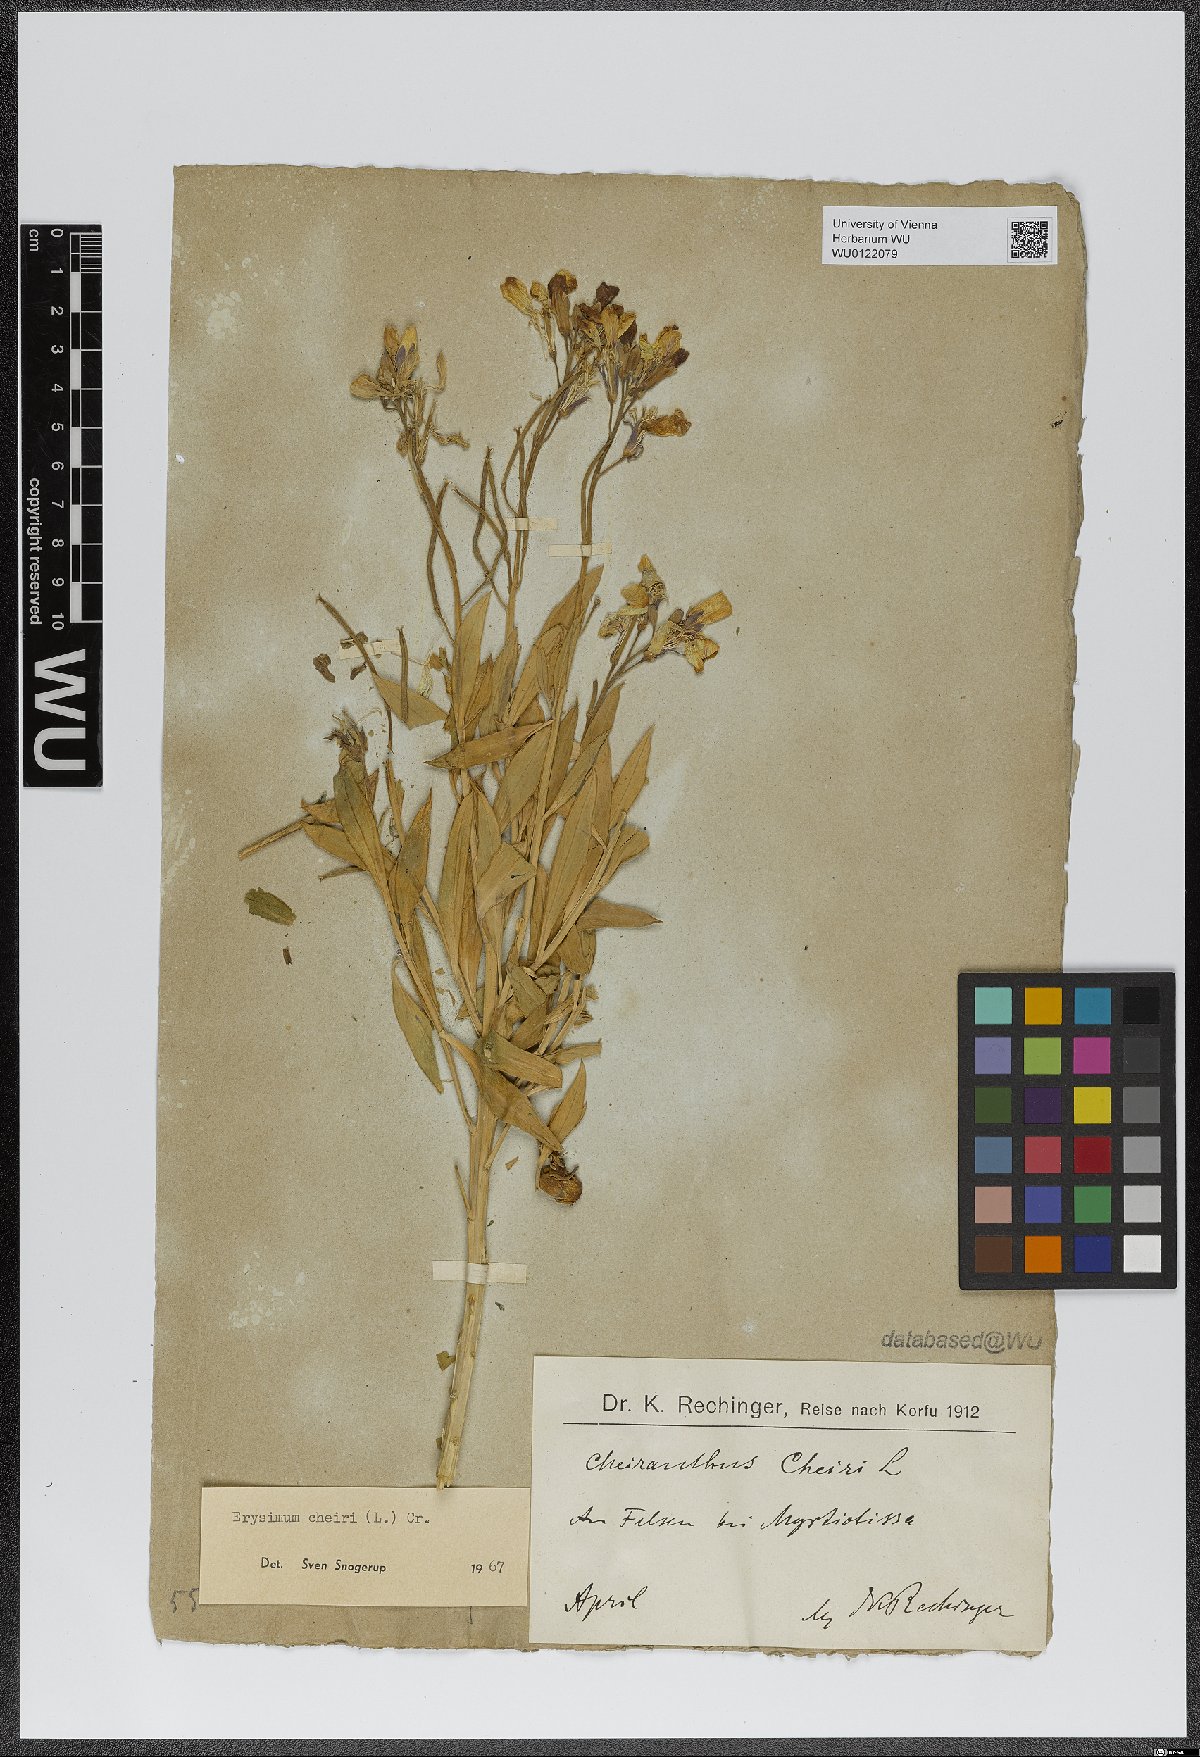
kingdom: Plantae
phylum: Tracheophyta
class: Magnoliopsida
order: Brassicales
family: Brassicaceae
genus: Erysimum
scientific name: Erysimum cheiri
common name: Wallflower
